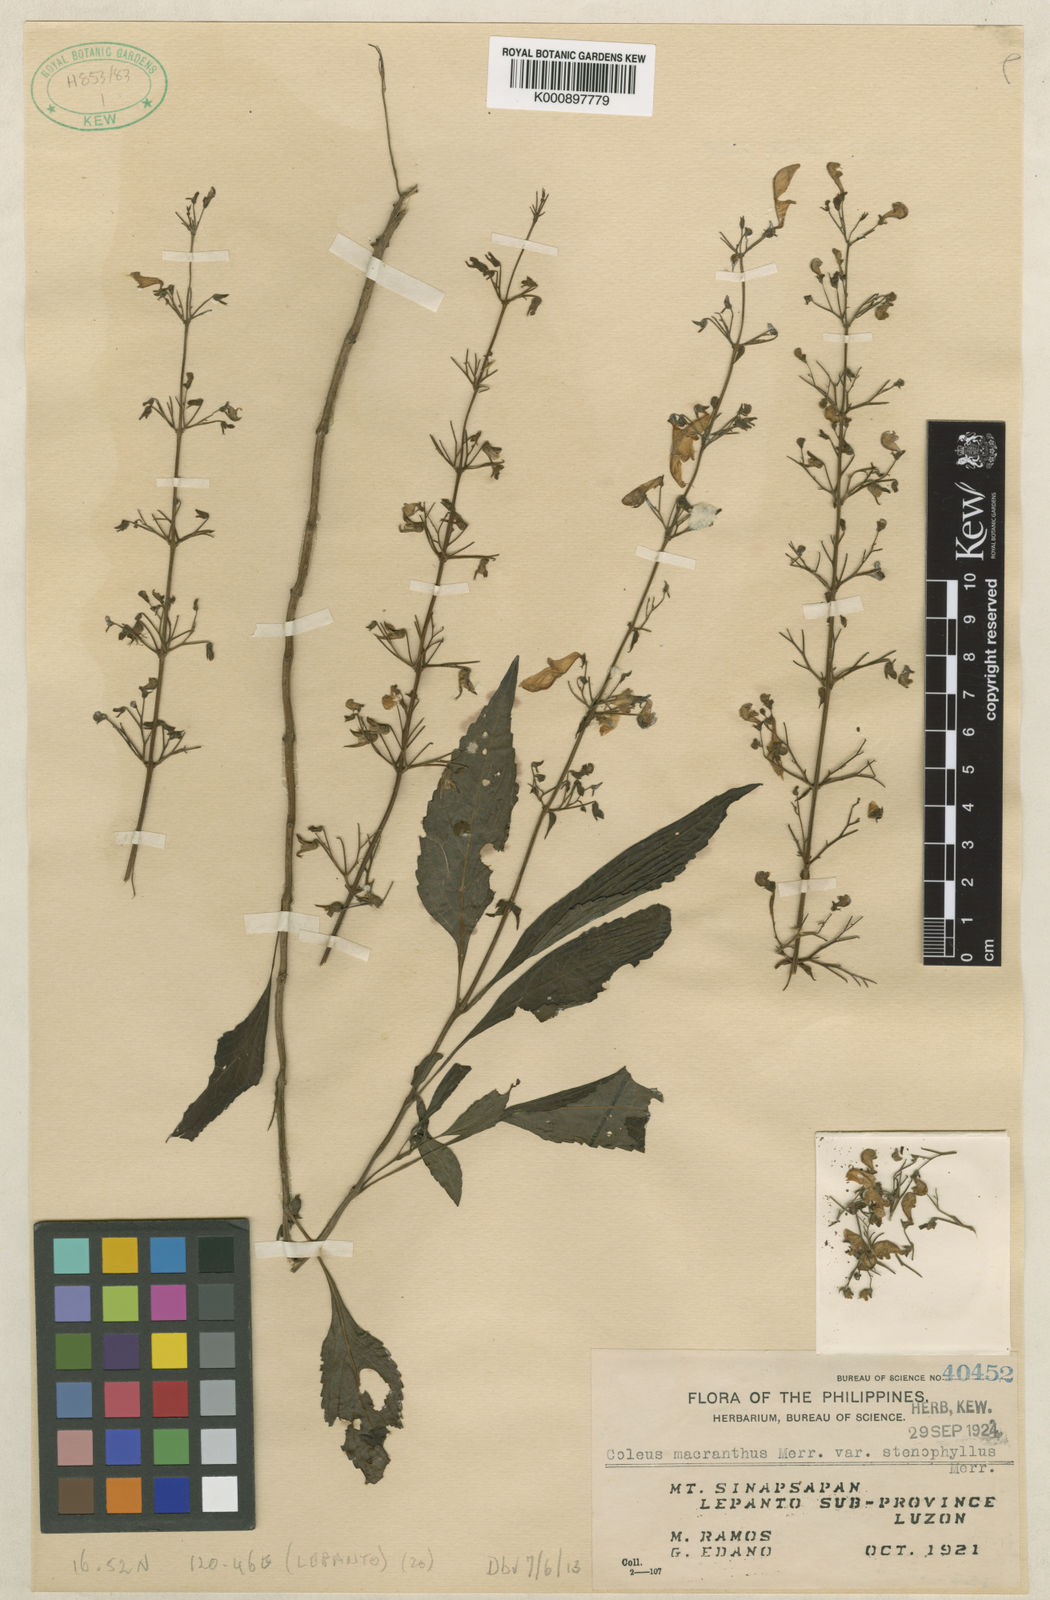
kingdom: Plantae
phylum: Tracheophyta
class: Magnoliopsida
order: Lamiales
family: Lamiaceae
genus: Coleus
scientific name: Coleus scutellarioides
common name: Coleus
